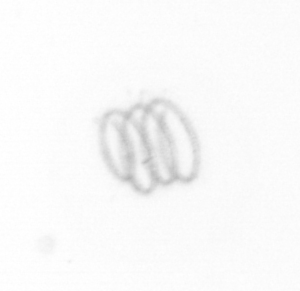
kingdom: Chromista
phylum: Ochrophyta
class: Bacillariophyceae
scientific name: Bacillariophyceae
